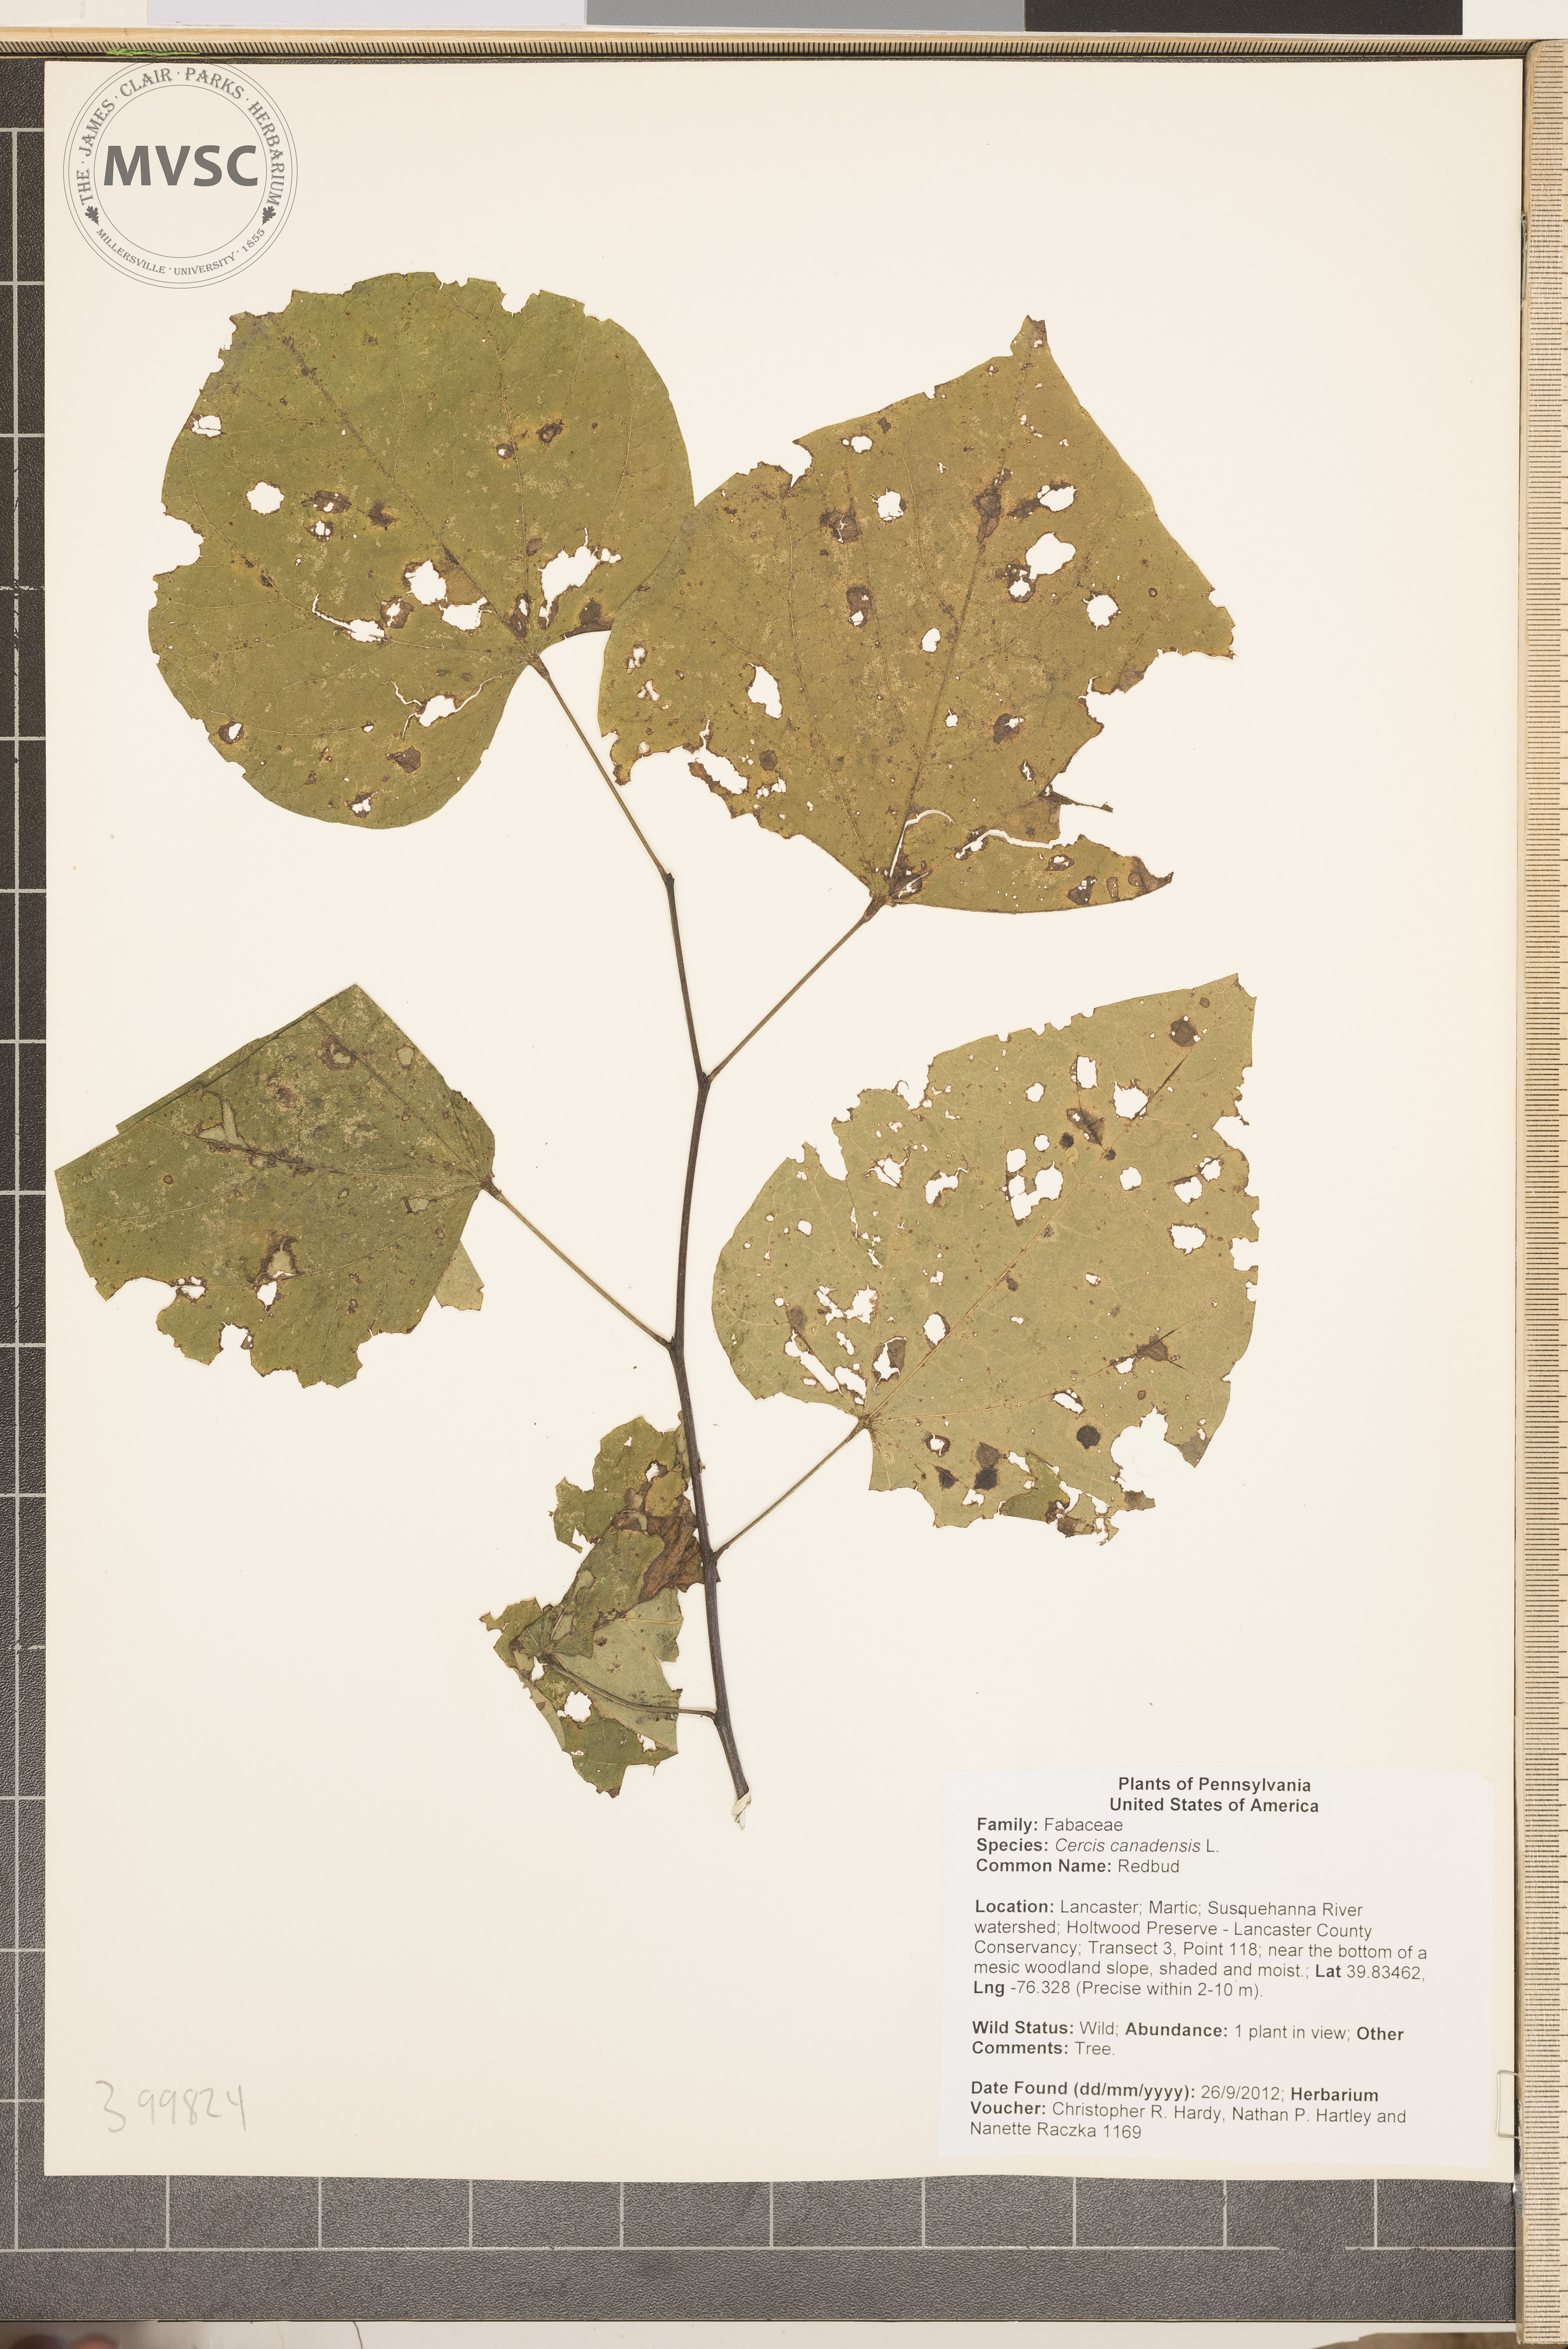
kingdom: Plantae
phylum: Tracheophyta
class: Magnoliopsida
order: Fabales
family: Fabaceae
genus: Cercis
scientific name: Cercis canadensis
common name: Redbud
